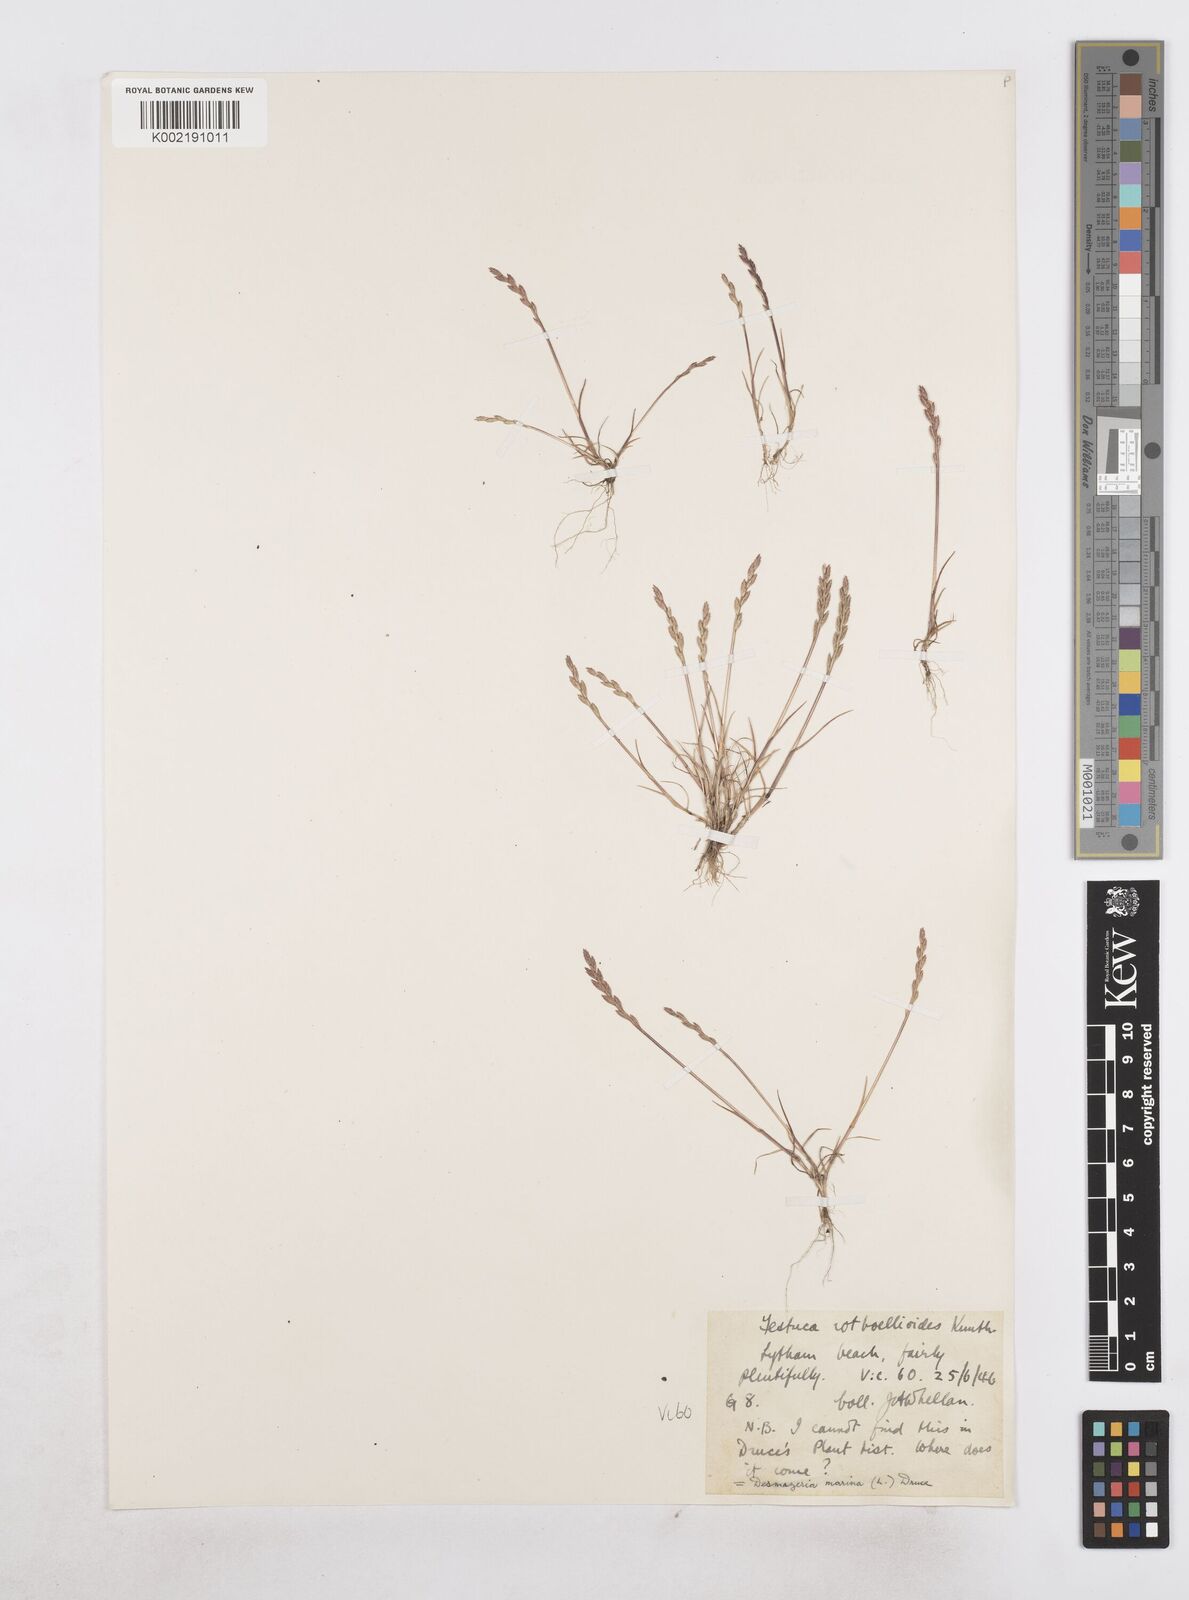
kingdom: Plantae
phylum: Tracheophyta
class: Liliopsida
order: Poales
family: Poaceae
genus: Catapodium
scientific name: Catapodium marinum
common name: Sea fern-grass
